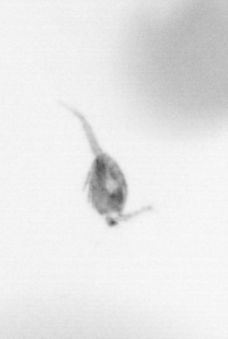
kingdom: Animalia
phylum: Arthropoda
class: Copepoda
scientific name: Copepoda
